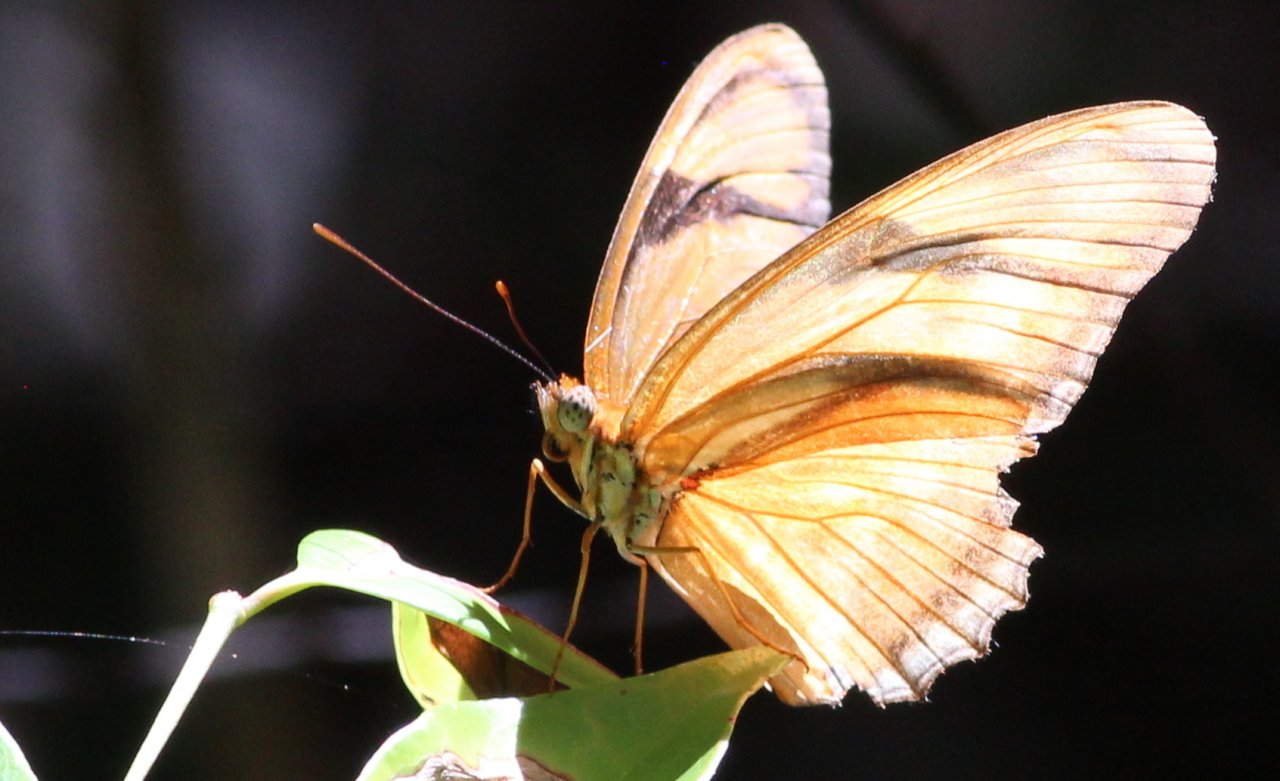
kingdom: Animalia
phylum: Arthropoda
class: Insecta
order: Lepidoptera
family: Nymphalidae
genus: Dryas
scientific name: Dryas iulia
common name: Julia
